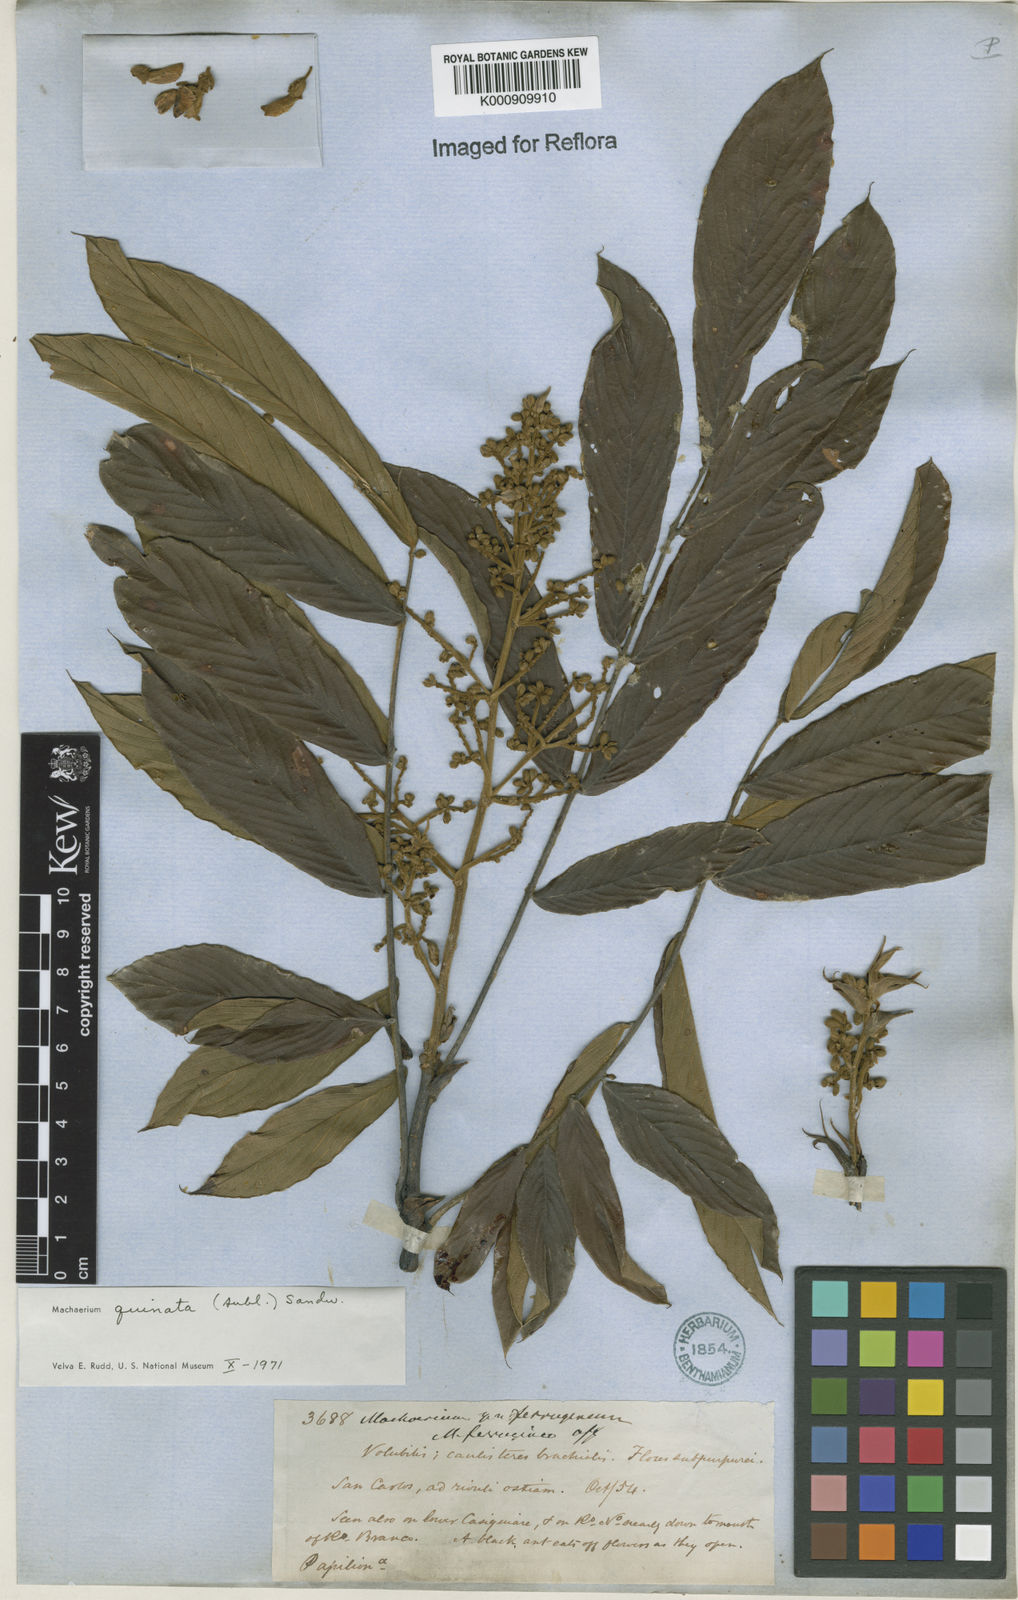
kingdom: Plantae
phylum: Tracheophyta
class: Magnoliopsida
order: Fabales
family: Fabaceae
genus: Machaerium
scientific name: Machaerium quinata
